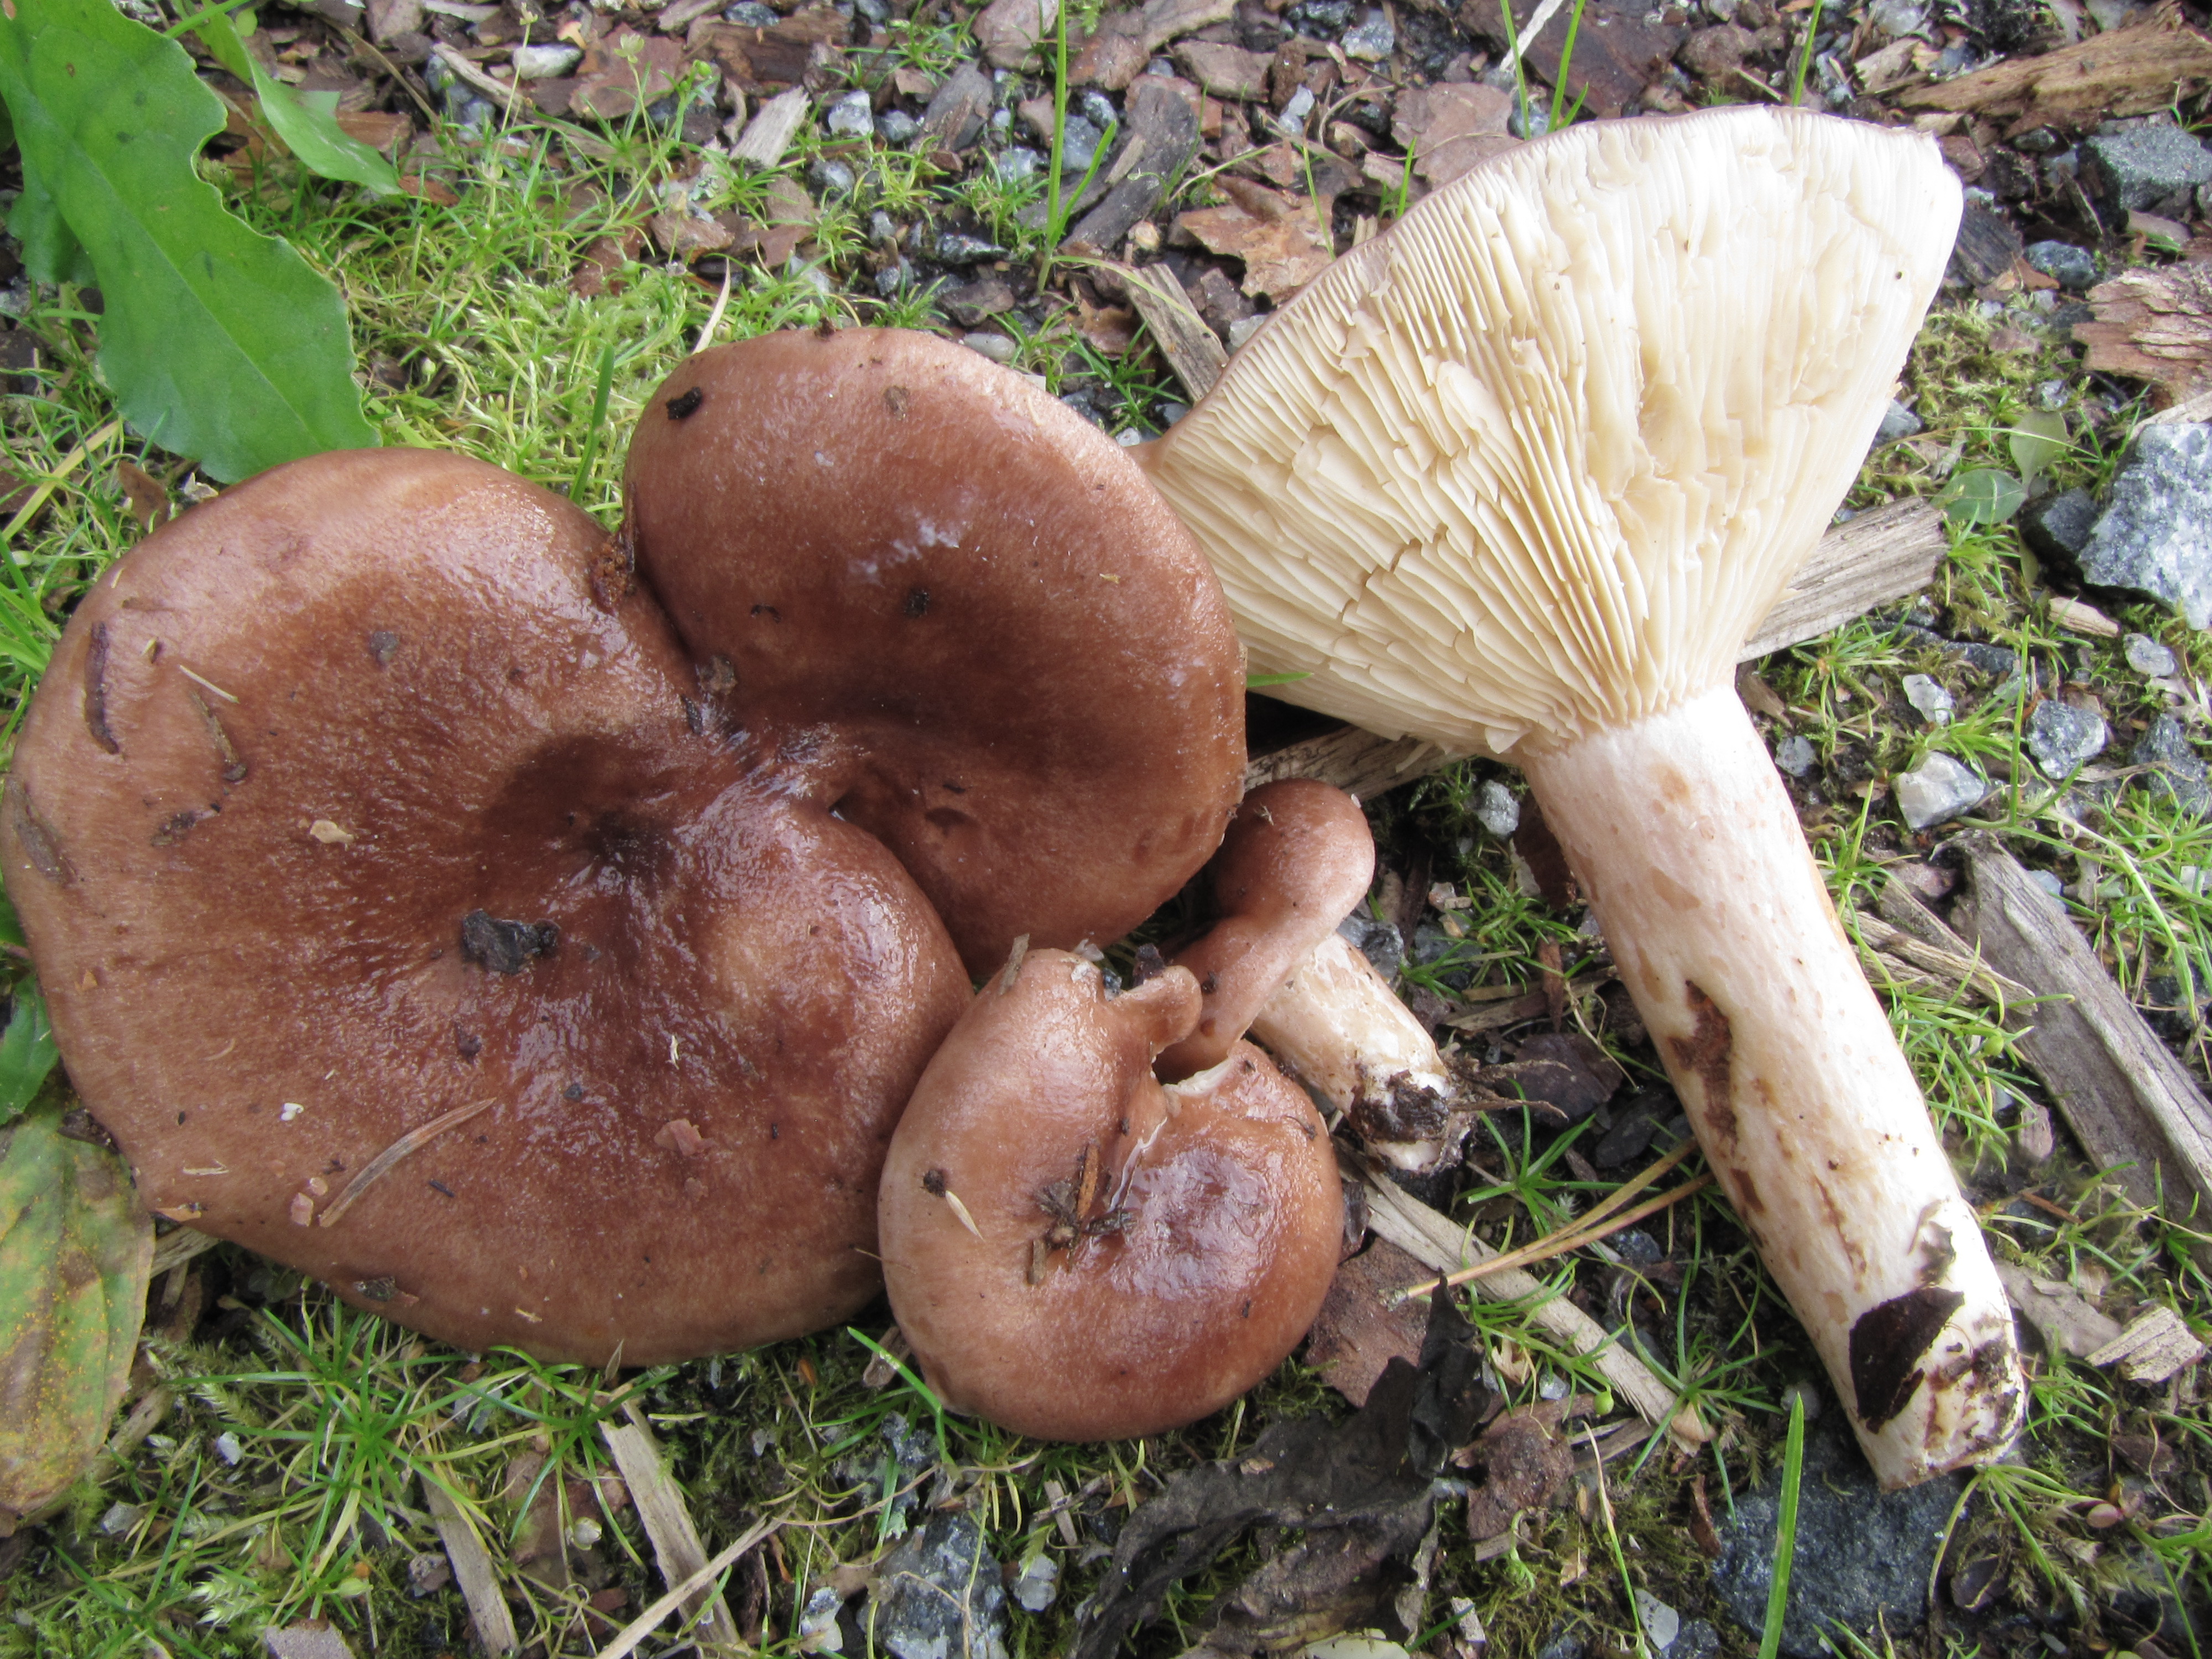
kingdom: Fungi
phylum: Basidiomycota
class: Agaricomycetes
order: Russulales
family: Russulaceae
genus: Lactarius
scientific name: Lactarius hysginus
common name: Dyed milkcap
